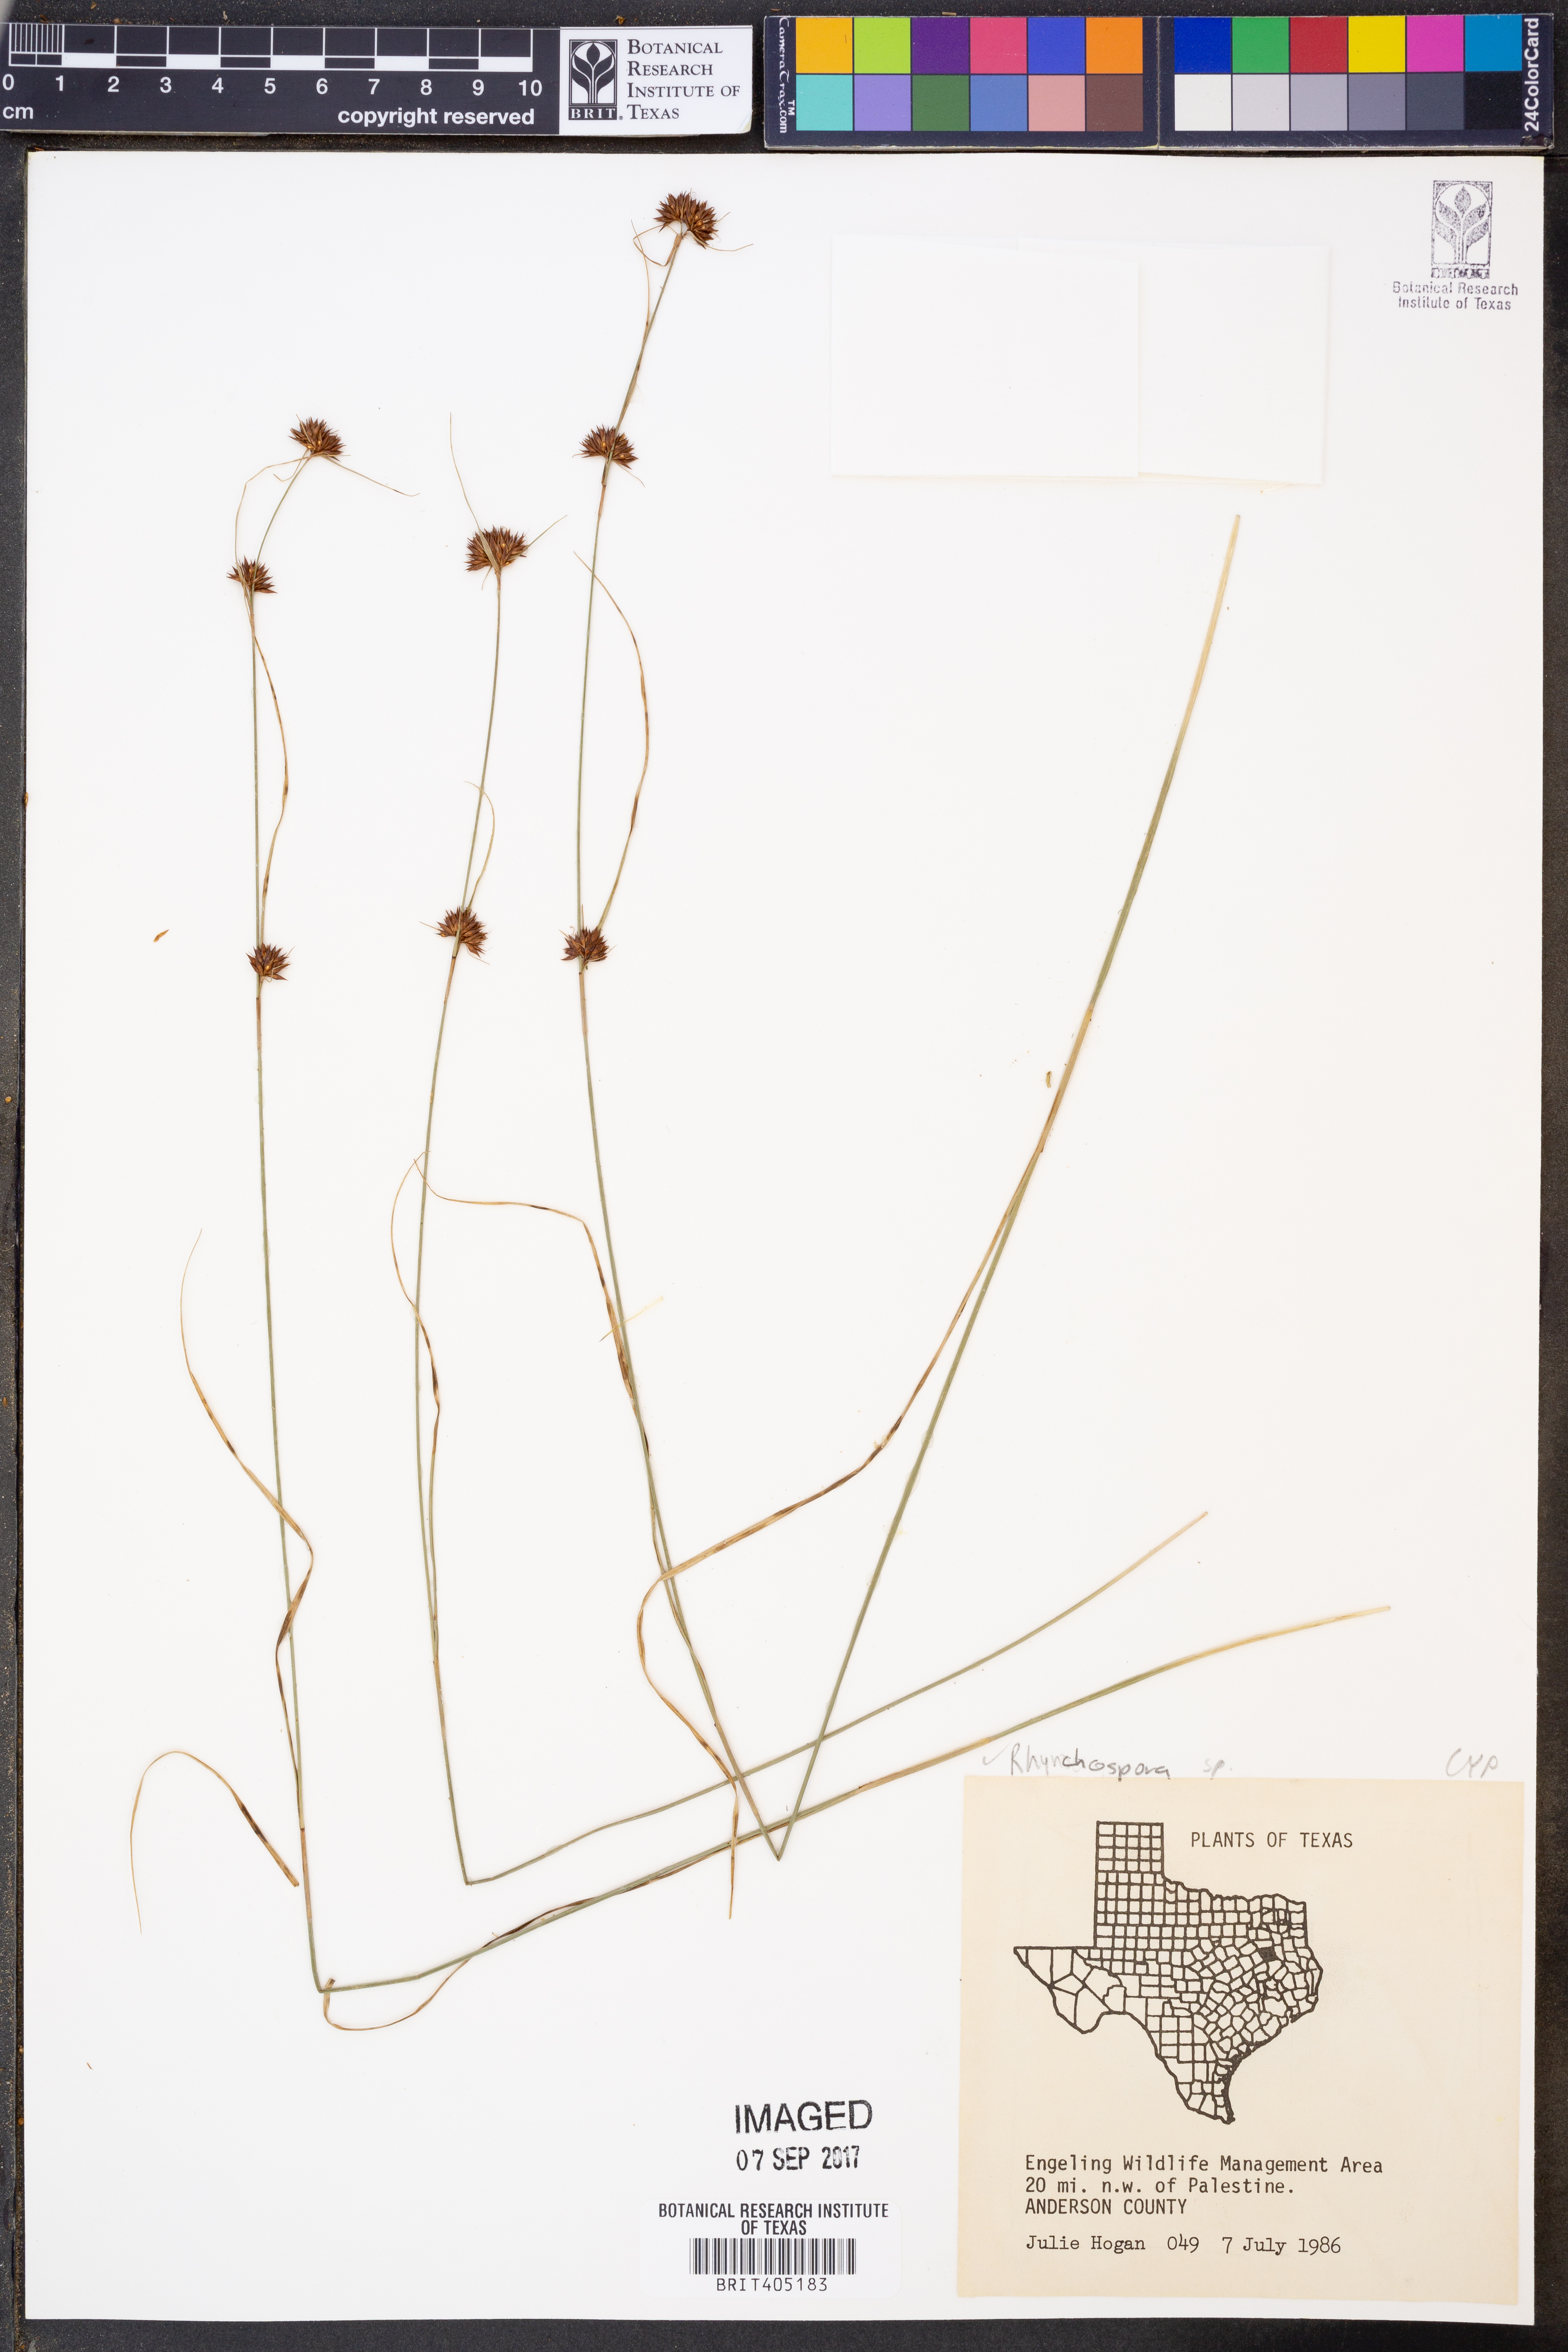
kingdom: Plantae
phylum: Tracheophyta
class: Liliopsida
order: Poales
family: Cyperaceae
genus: Rhynchospora
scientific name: Rhynchospora
